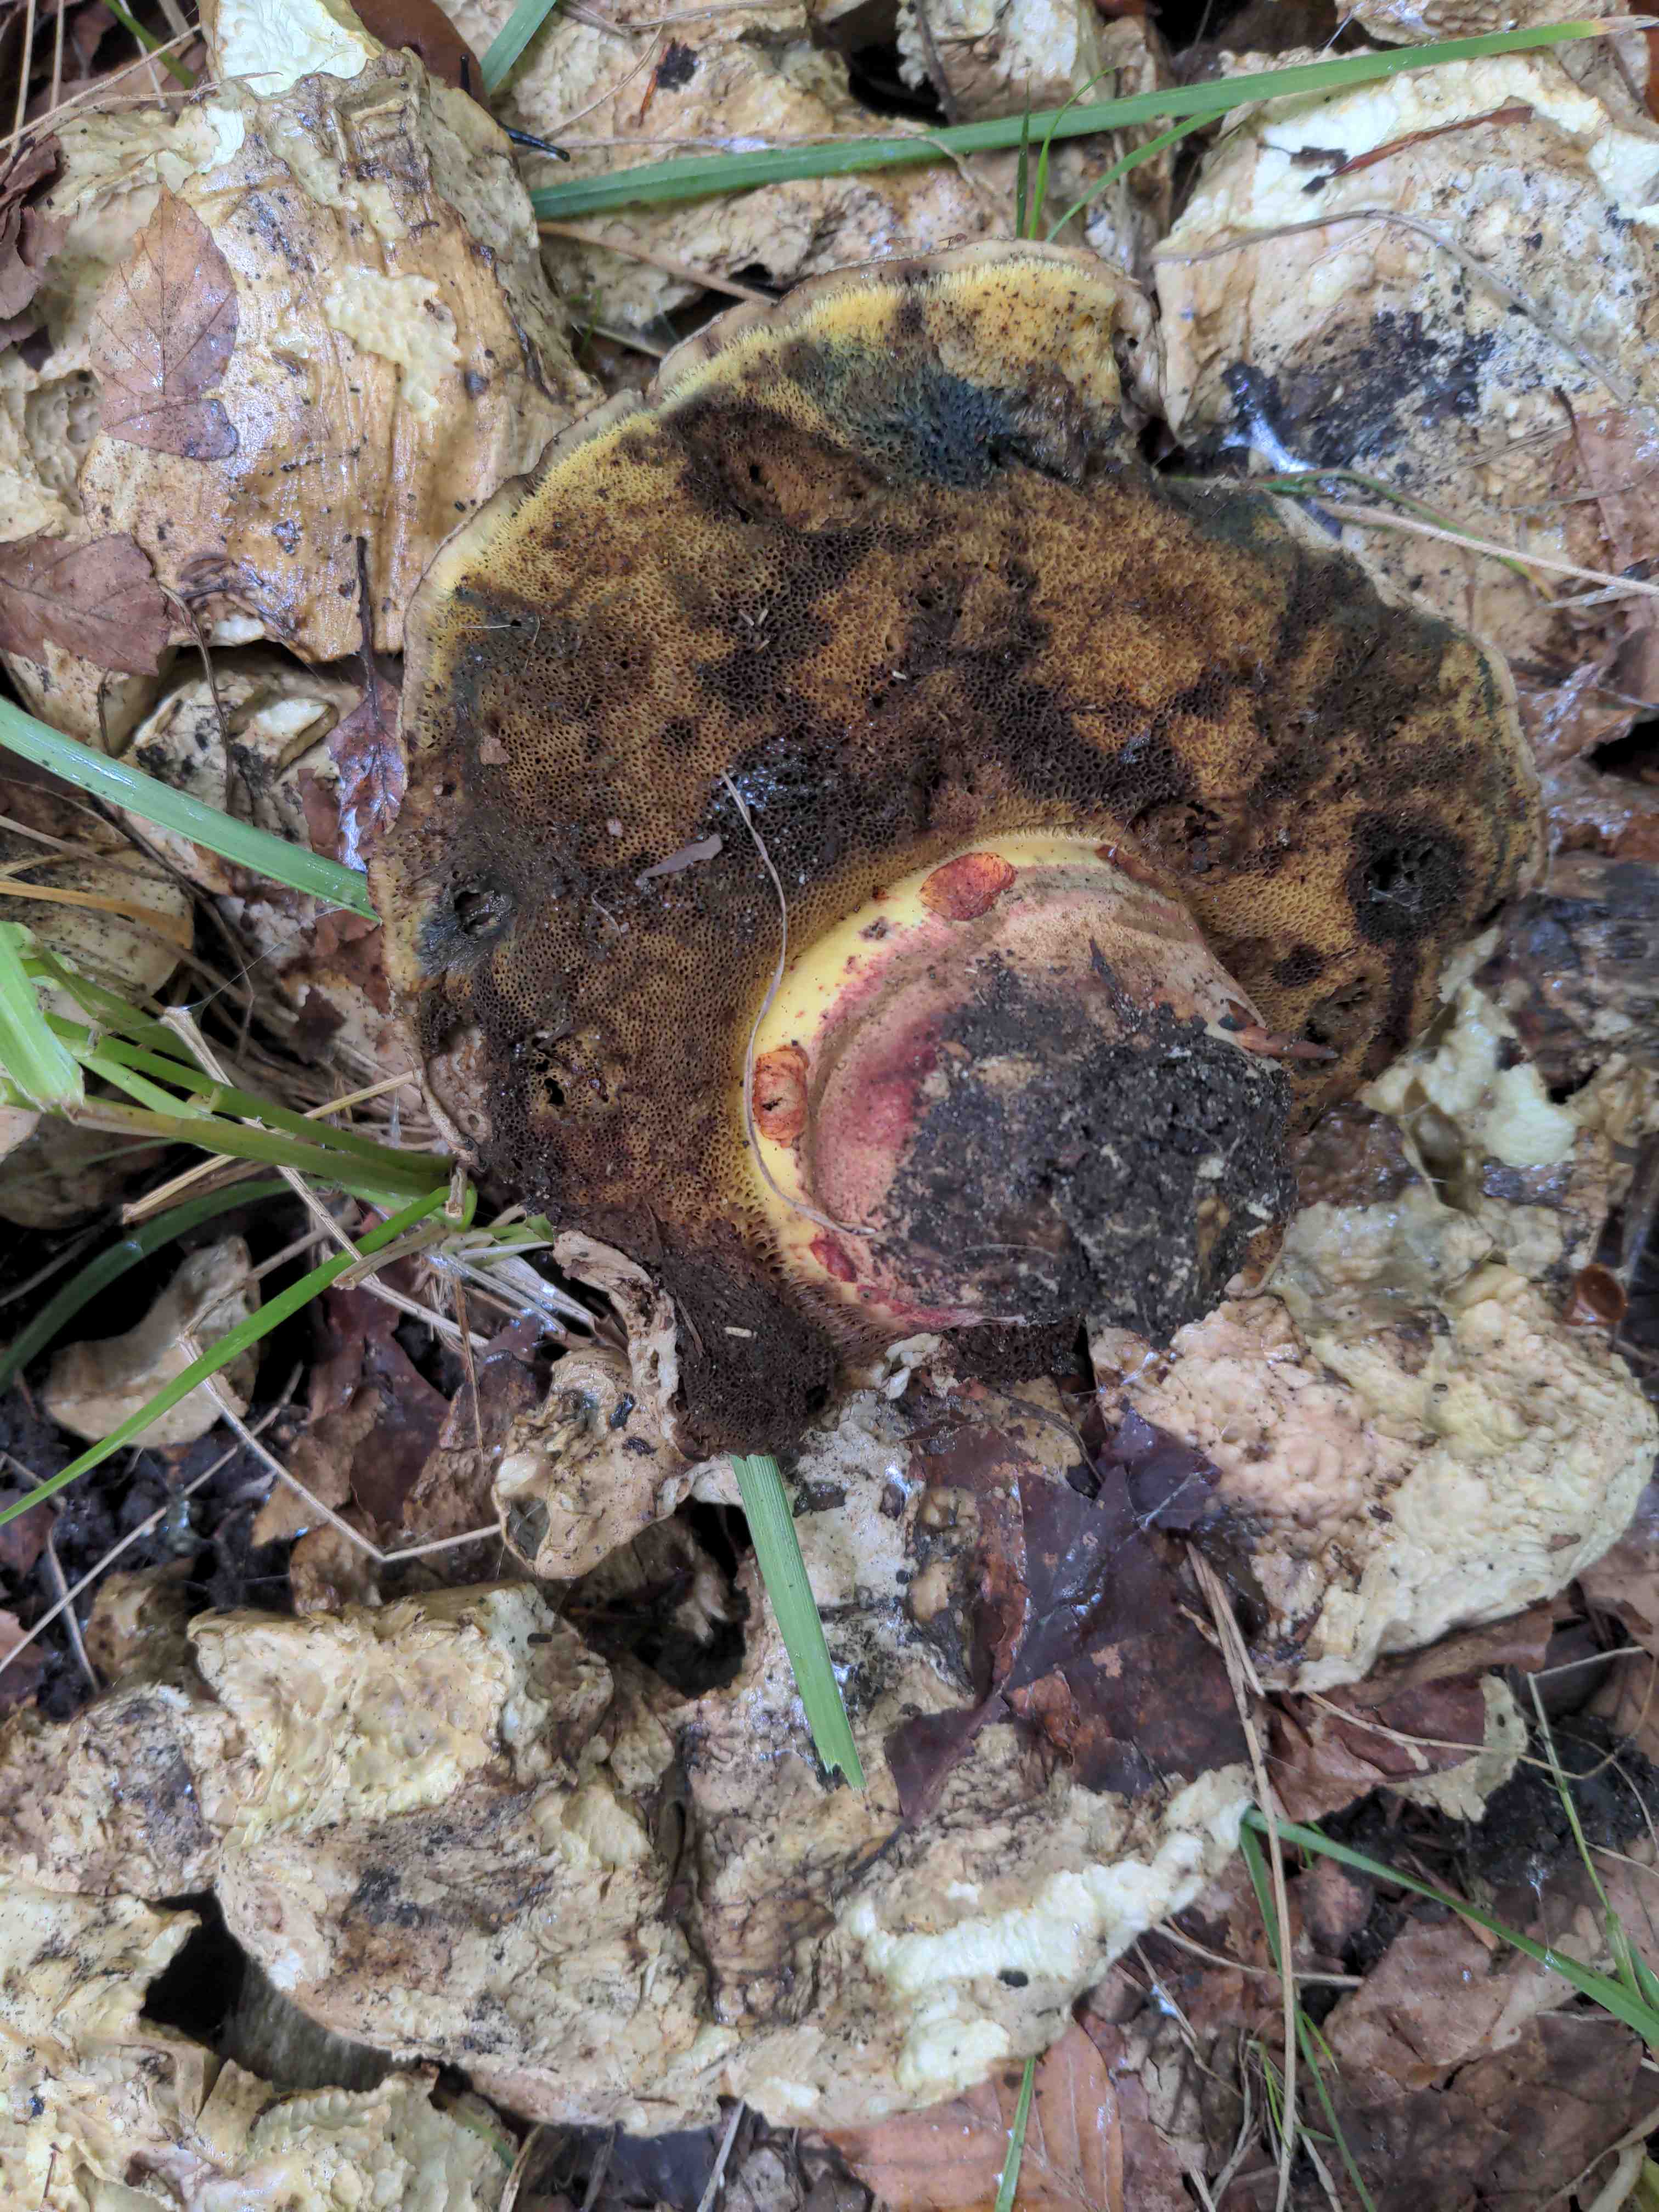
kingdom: Fungi
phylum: Basidiomycota
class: Agaricomycetes
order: Boletales
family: Boletaceae
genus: Caloboletus
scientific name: Caloboletus radicans
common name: rod-rørhat
